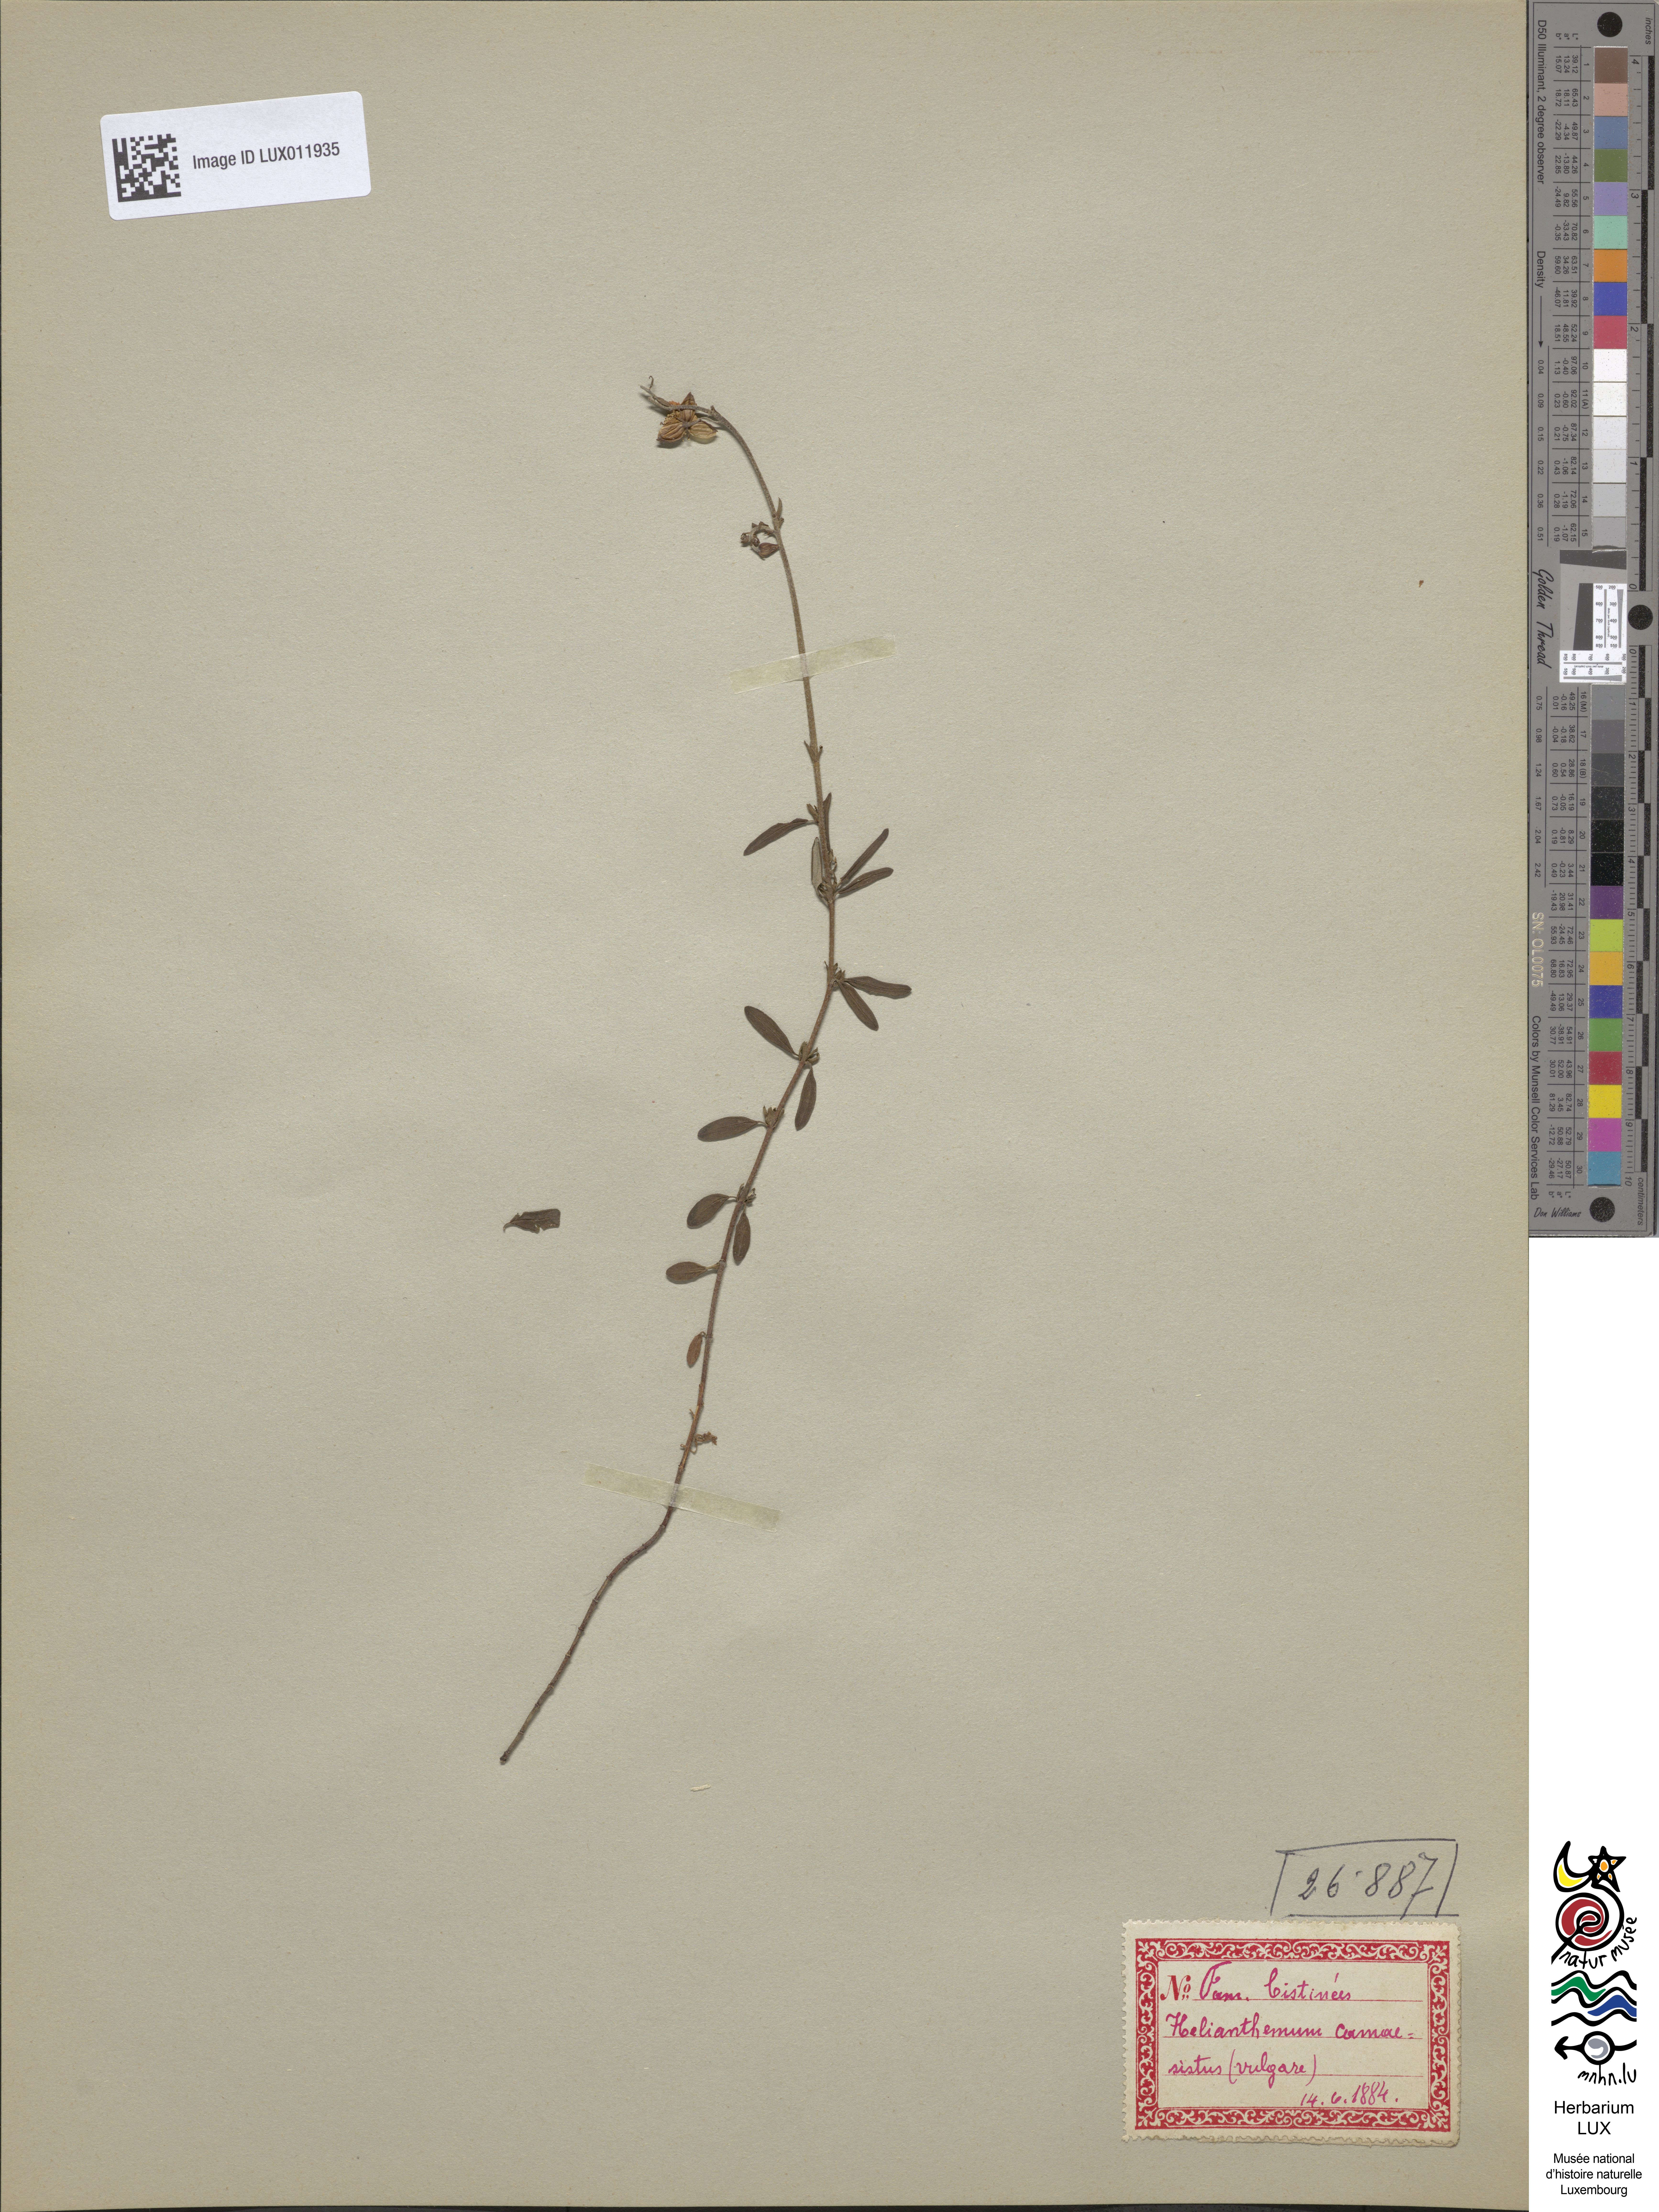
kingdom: Plantae
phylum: Tracheophyta
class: Magnoliopsida
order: Malvales
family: Cistaceae
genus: Helianthemum
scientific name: Helianthemum nummularium
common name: Common rock-rose
